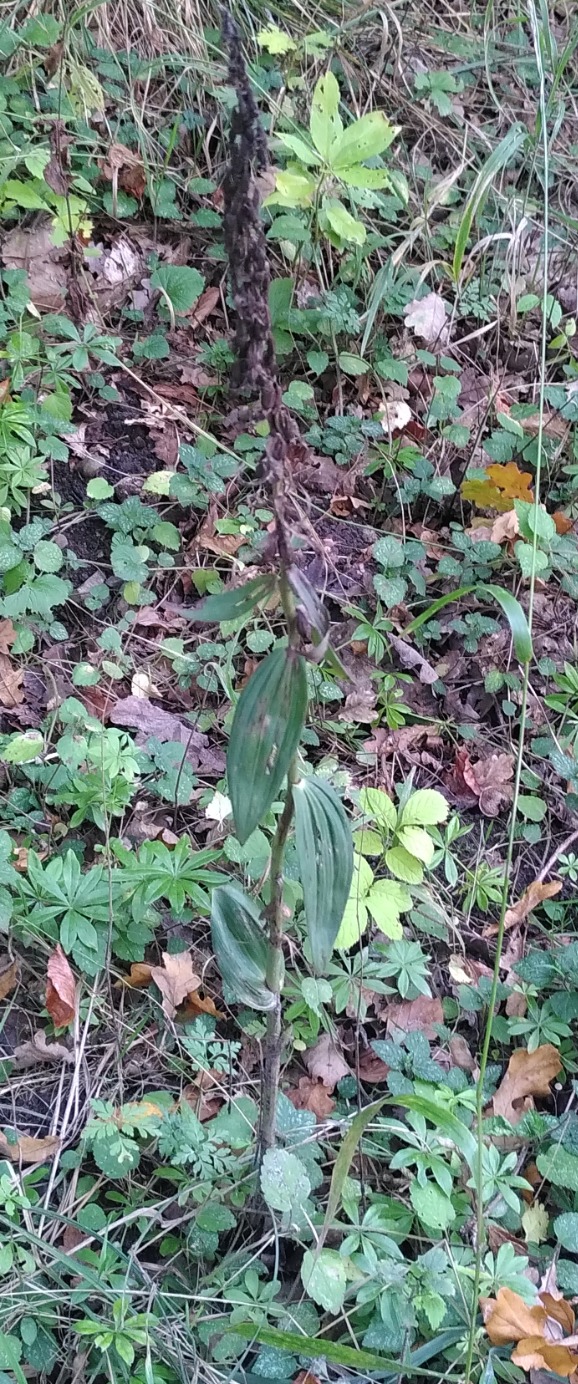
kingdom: Plantae
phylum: Tracheophyta
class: Liliopsida
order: Asparagales
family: Orchidaceae
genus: Epipactis
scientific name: Epipactis helleborine
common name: Skov-hullæbe
